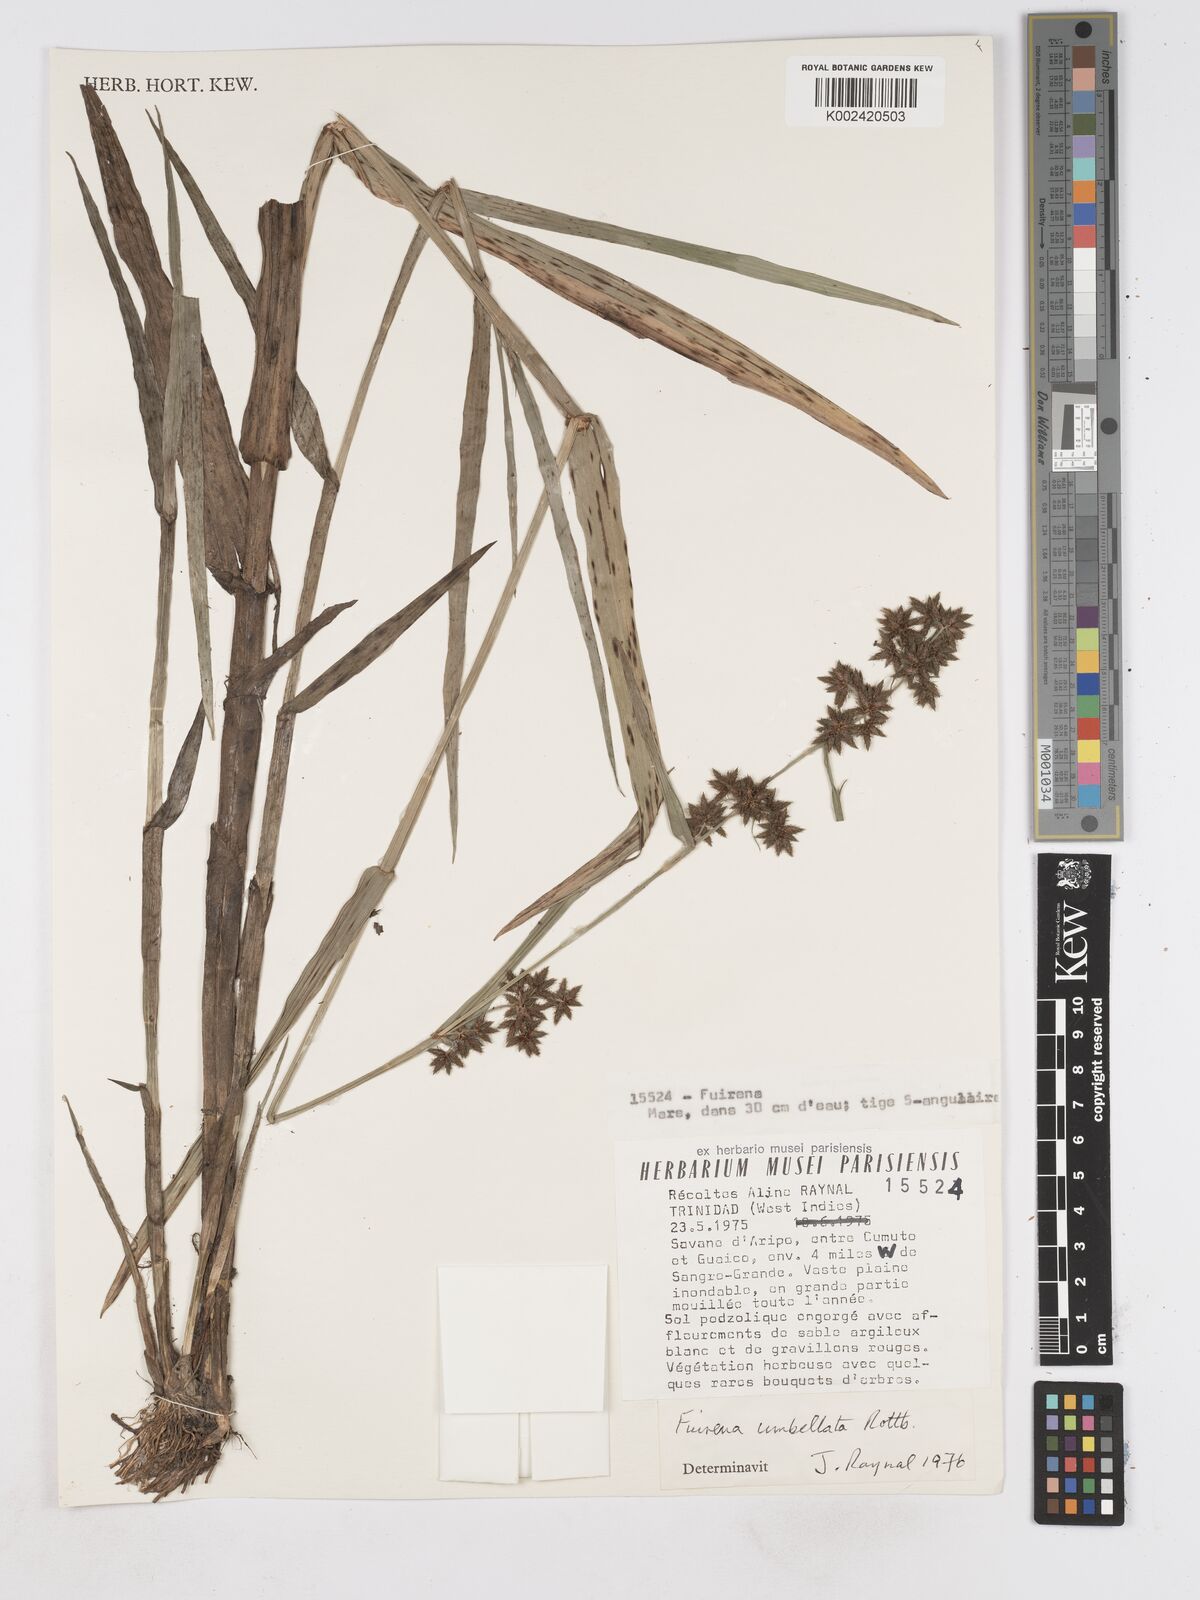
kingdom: Plantae
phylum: Tracheophyta
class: Liliopsida
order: Poales
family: Cyperaceae
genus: Fuirena
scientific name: Fuirena umbellata
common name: Yefen
